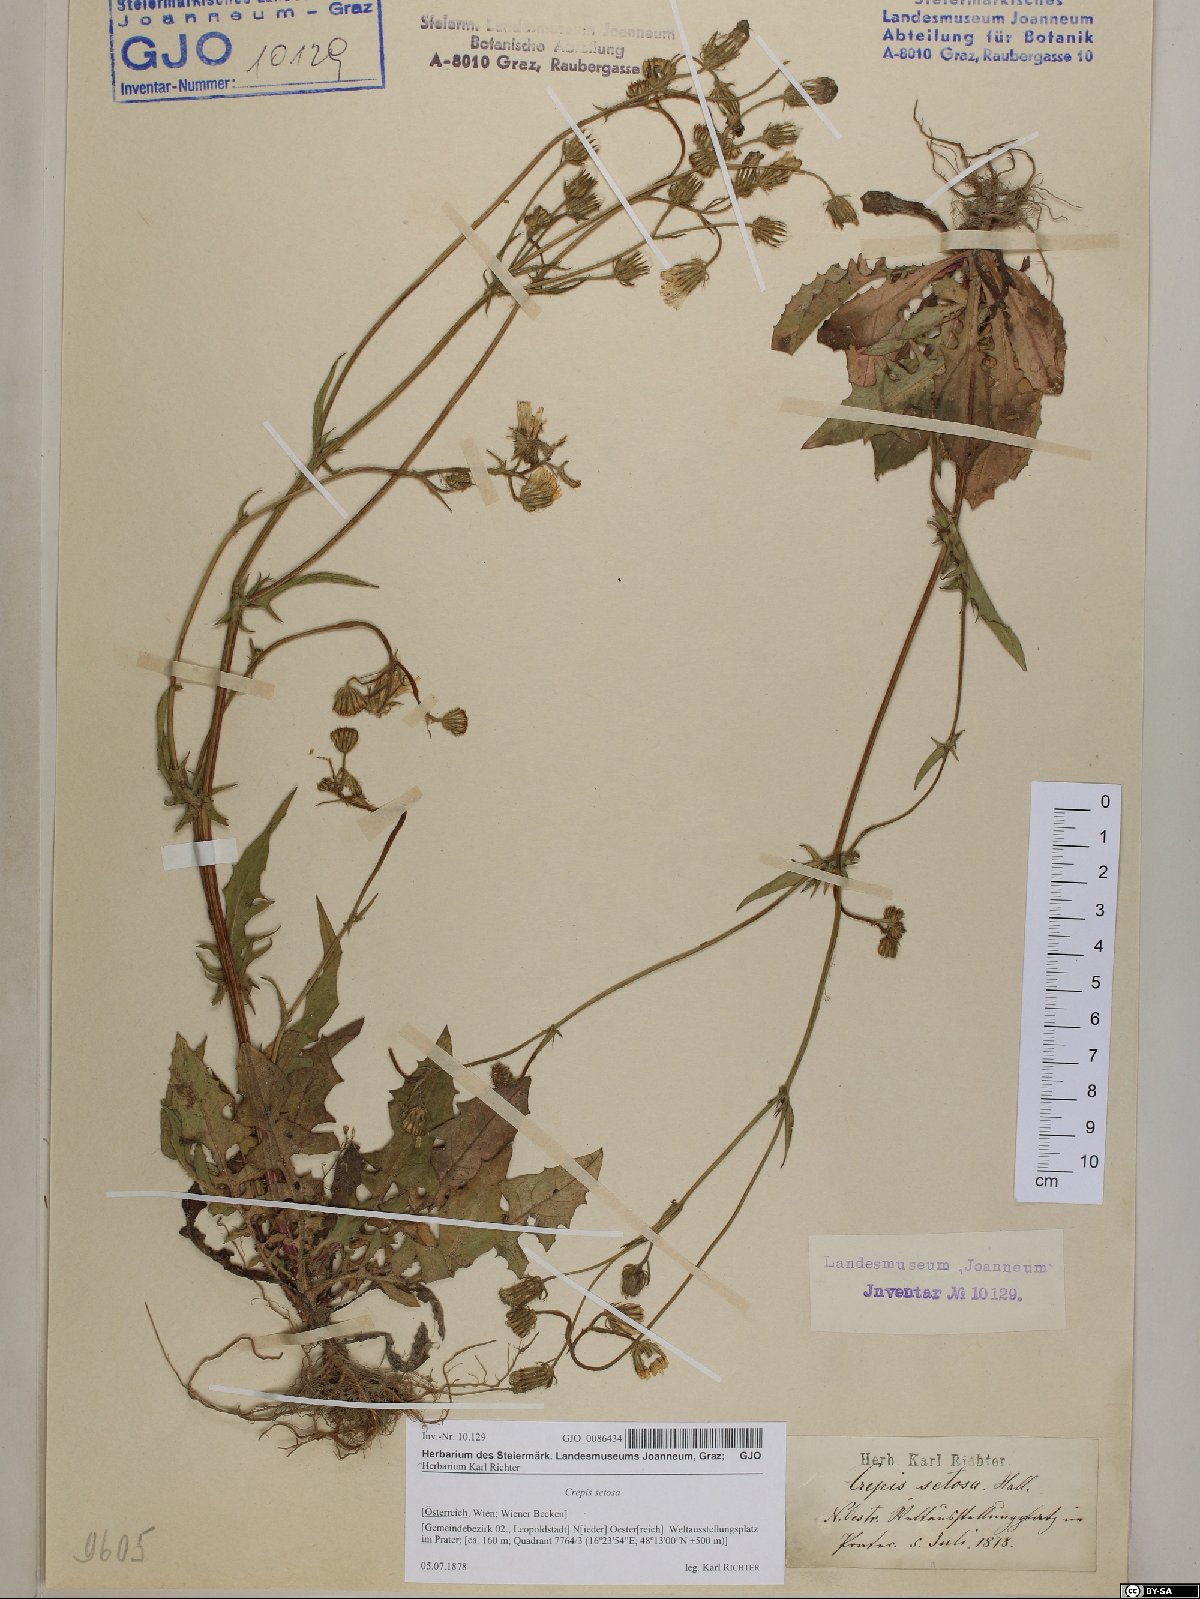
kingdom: Plantae
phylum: Tracheophyta
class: Magnoliopsida
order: Asterales
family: Asteraceae
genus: Crepis
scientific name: Crepis setosa
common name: Bristly hawk's-beard
